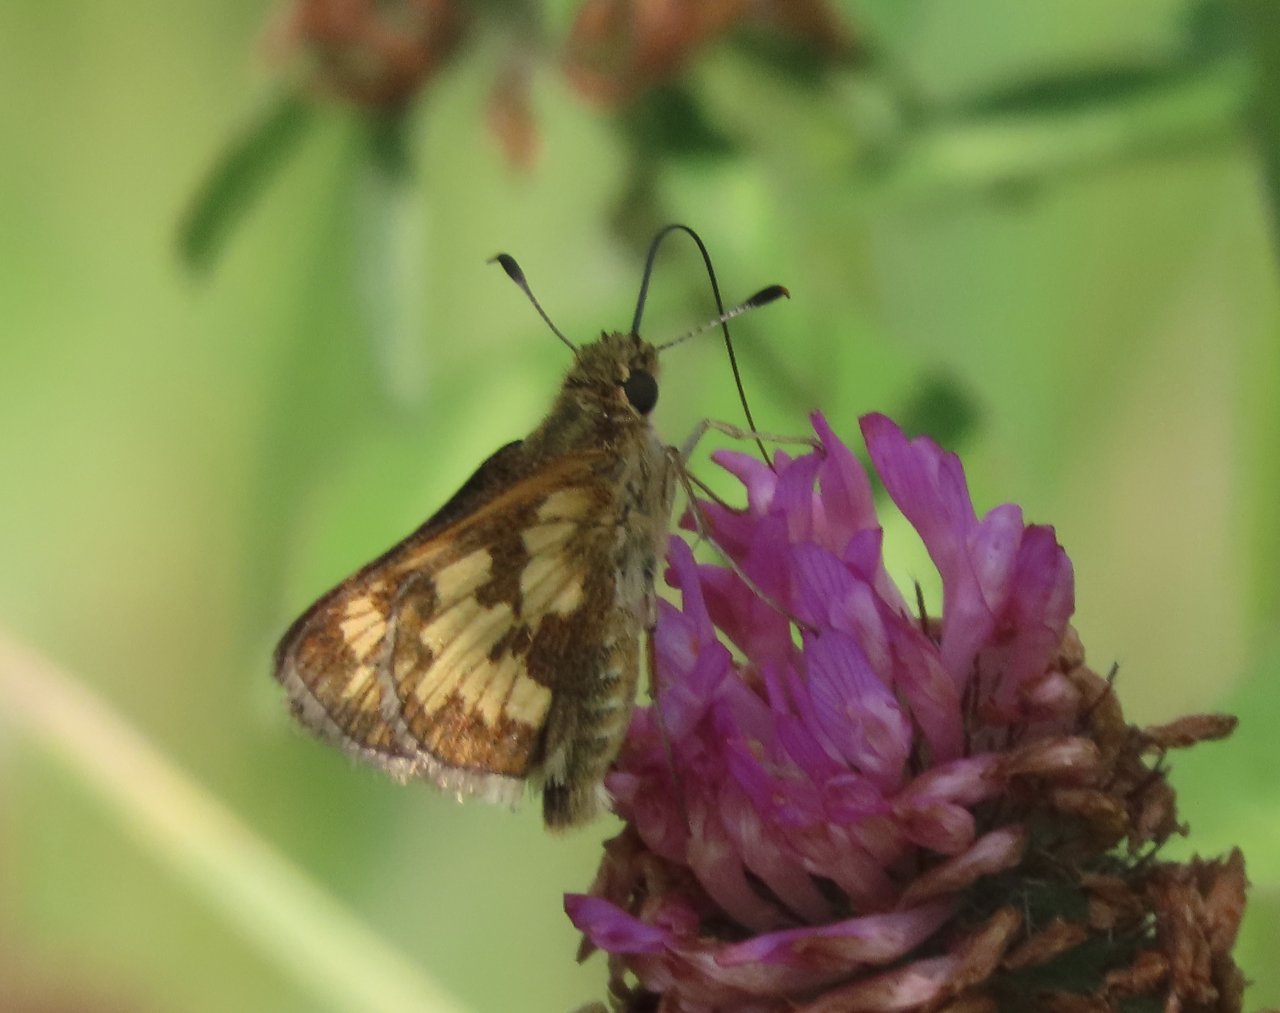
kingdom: Animalia
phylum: Arthropoda
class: Insecta
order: Lepidoptera
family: Hesperiidae
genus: Polites
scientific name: Polites coras
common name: Peck's Skipper
